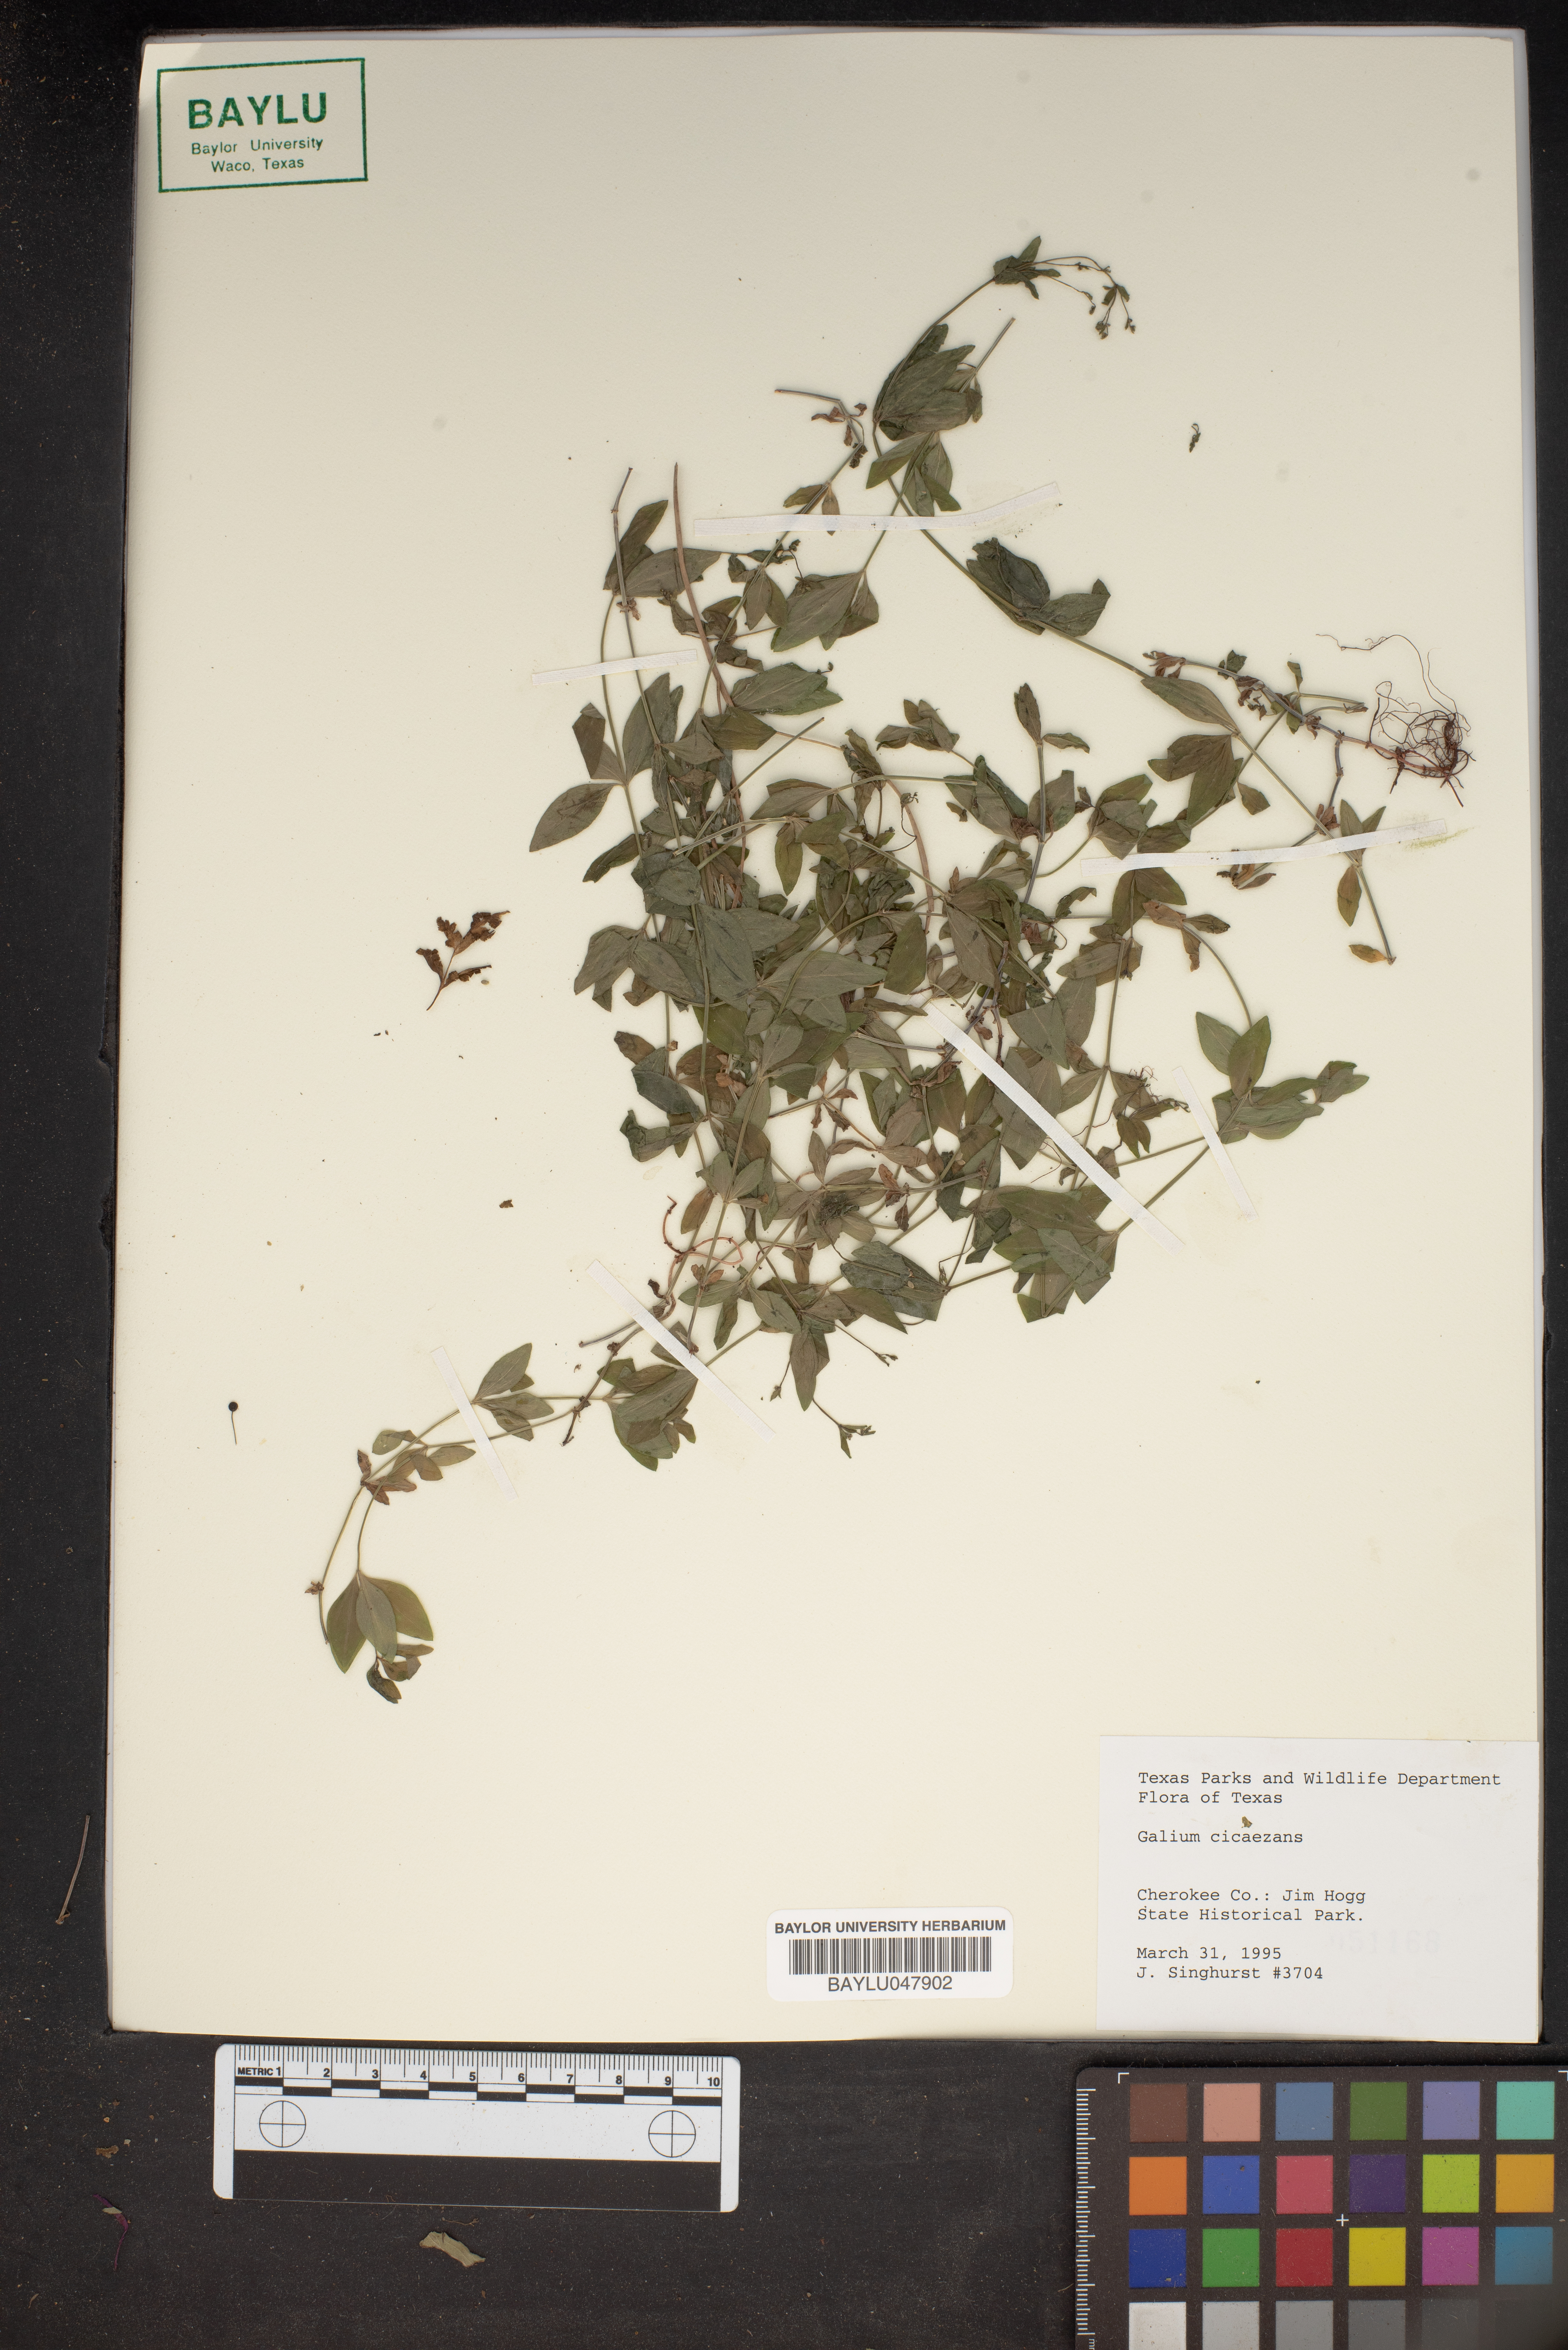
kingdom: Plantae
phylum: Tracheophyta
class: Magnoliopsida
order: Gentianales
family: Rubiaceae
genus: Galium
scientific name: Galium circaezans
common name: Forest bedstraw
